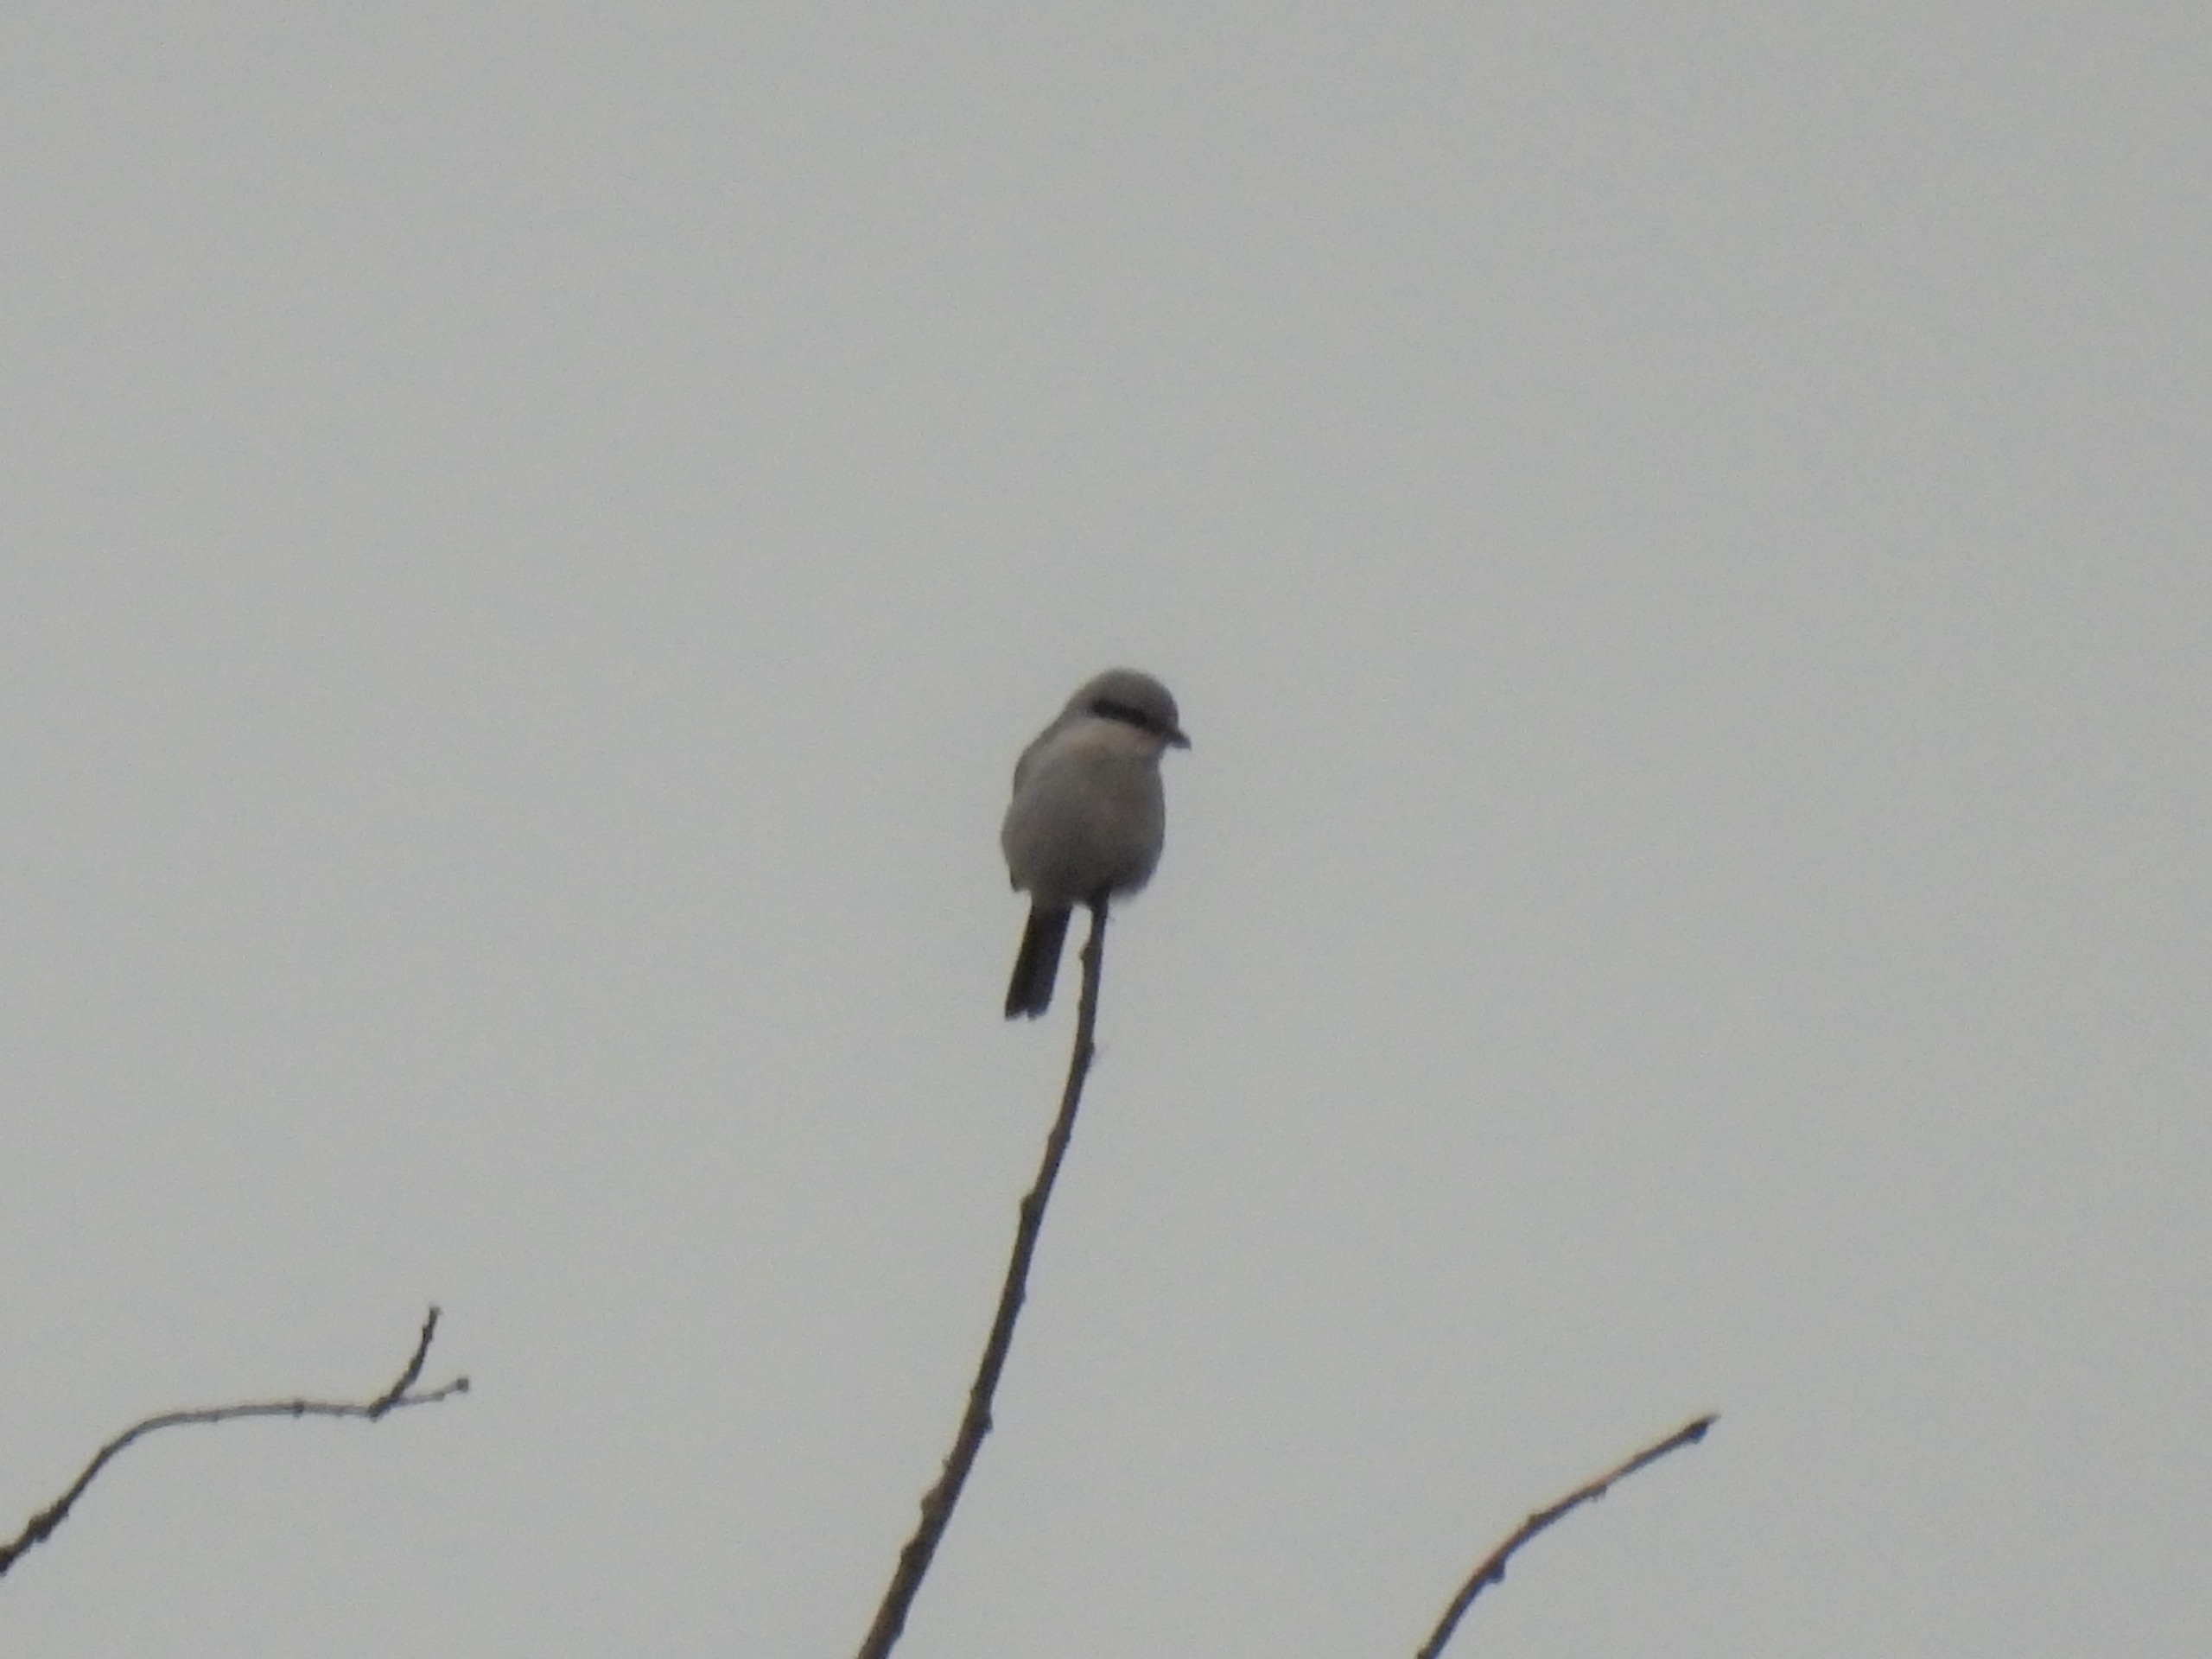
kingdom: Animalia
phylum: Chordata
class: Aves
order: Passeriformes
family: Laniidae
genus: Lanius
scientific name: Lanius excubitor
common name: Stor tornskade
